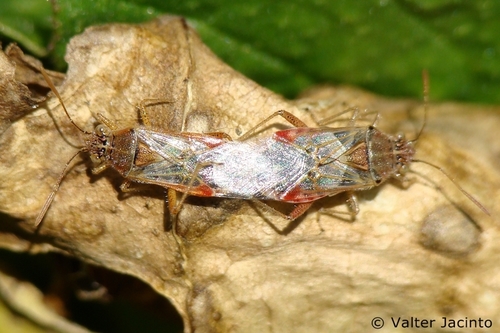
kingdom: Animalia
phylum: Arthropoda
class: Insecta
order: Hemiptera
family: Rhopalidae
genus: Liorhyssus
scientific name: Liorhyssus hyalinus
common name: Scentless plant bug
